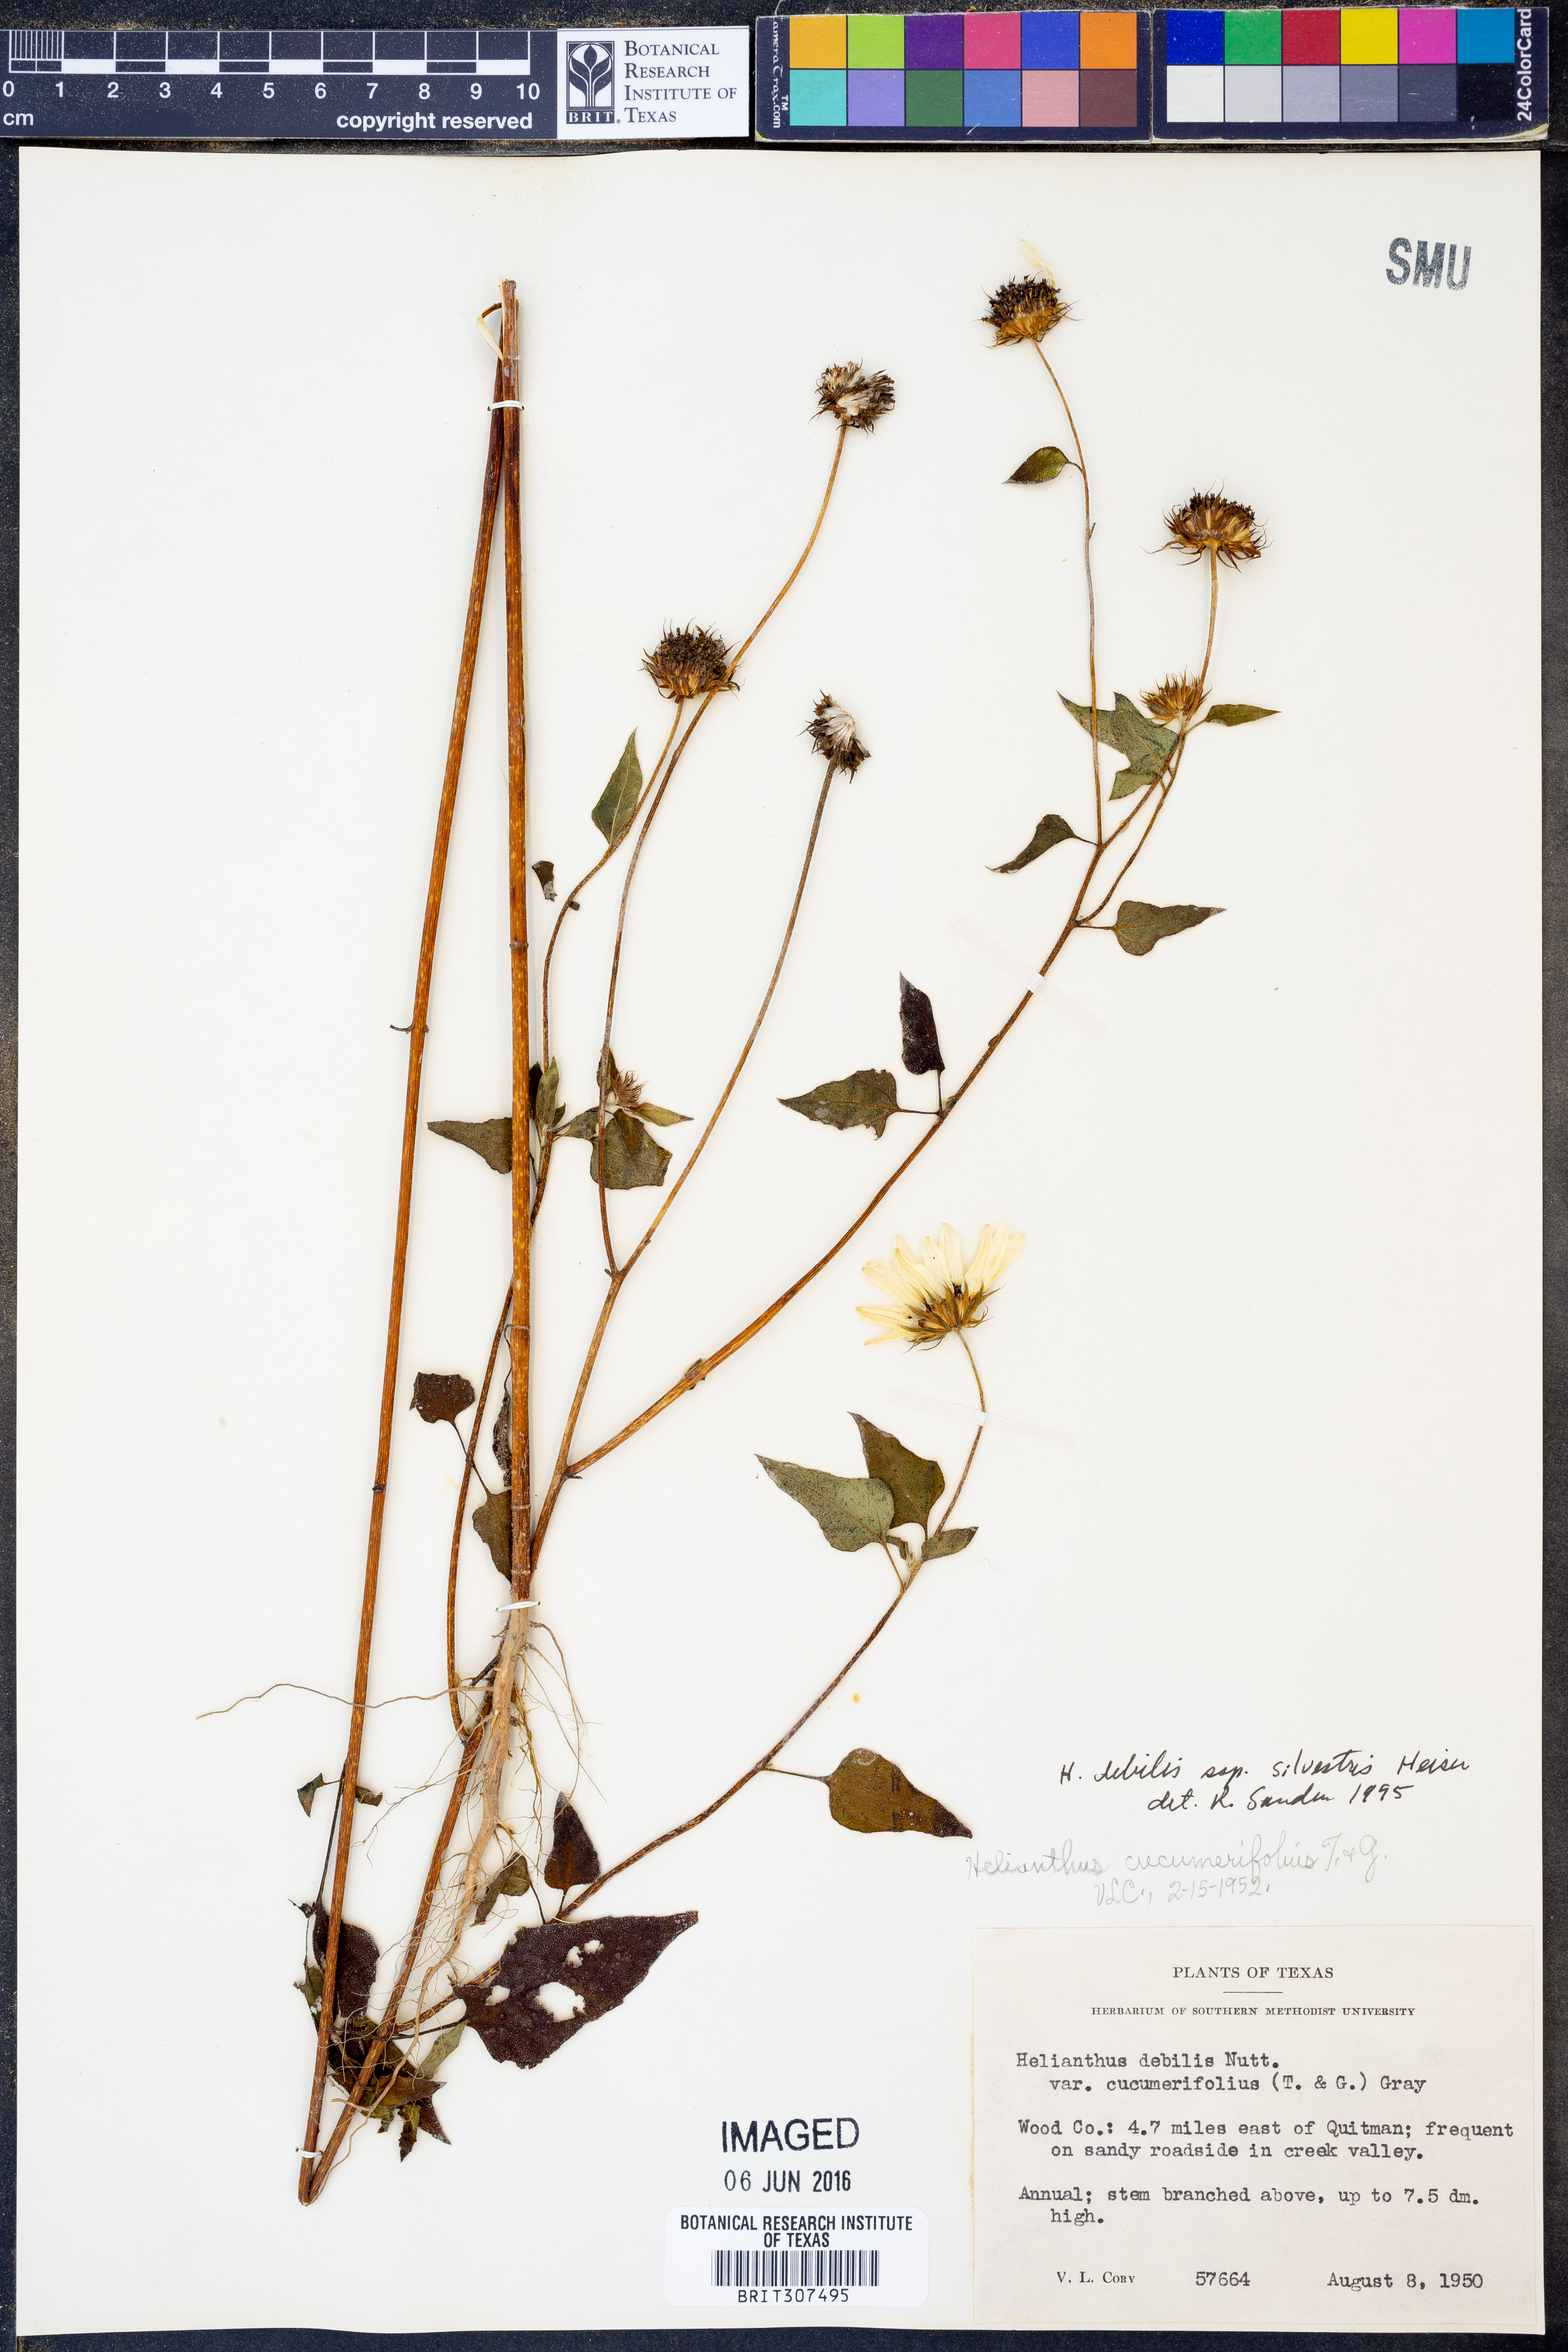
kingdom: Plantae
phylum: Tracheophyta
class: Magnoliopsida
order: Asterales
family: Asteraceae
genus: Helianthus
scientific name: Helianthus debilis
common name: Weak sunflower
